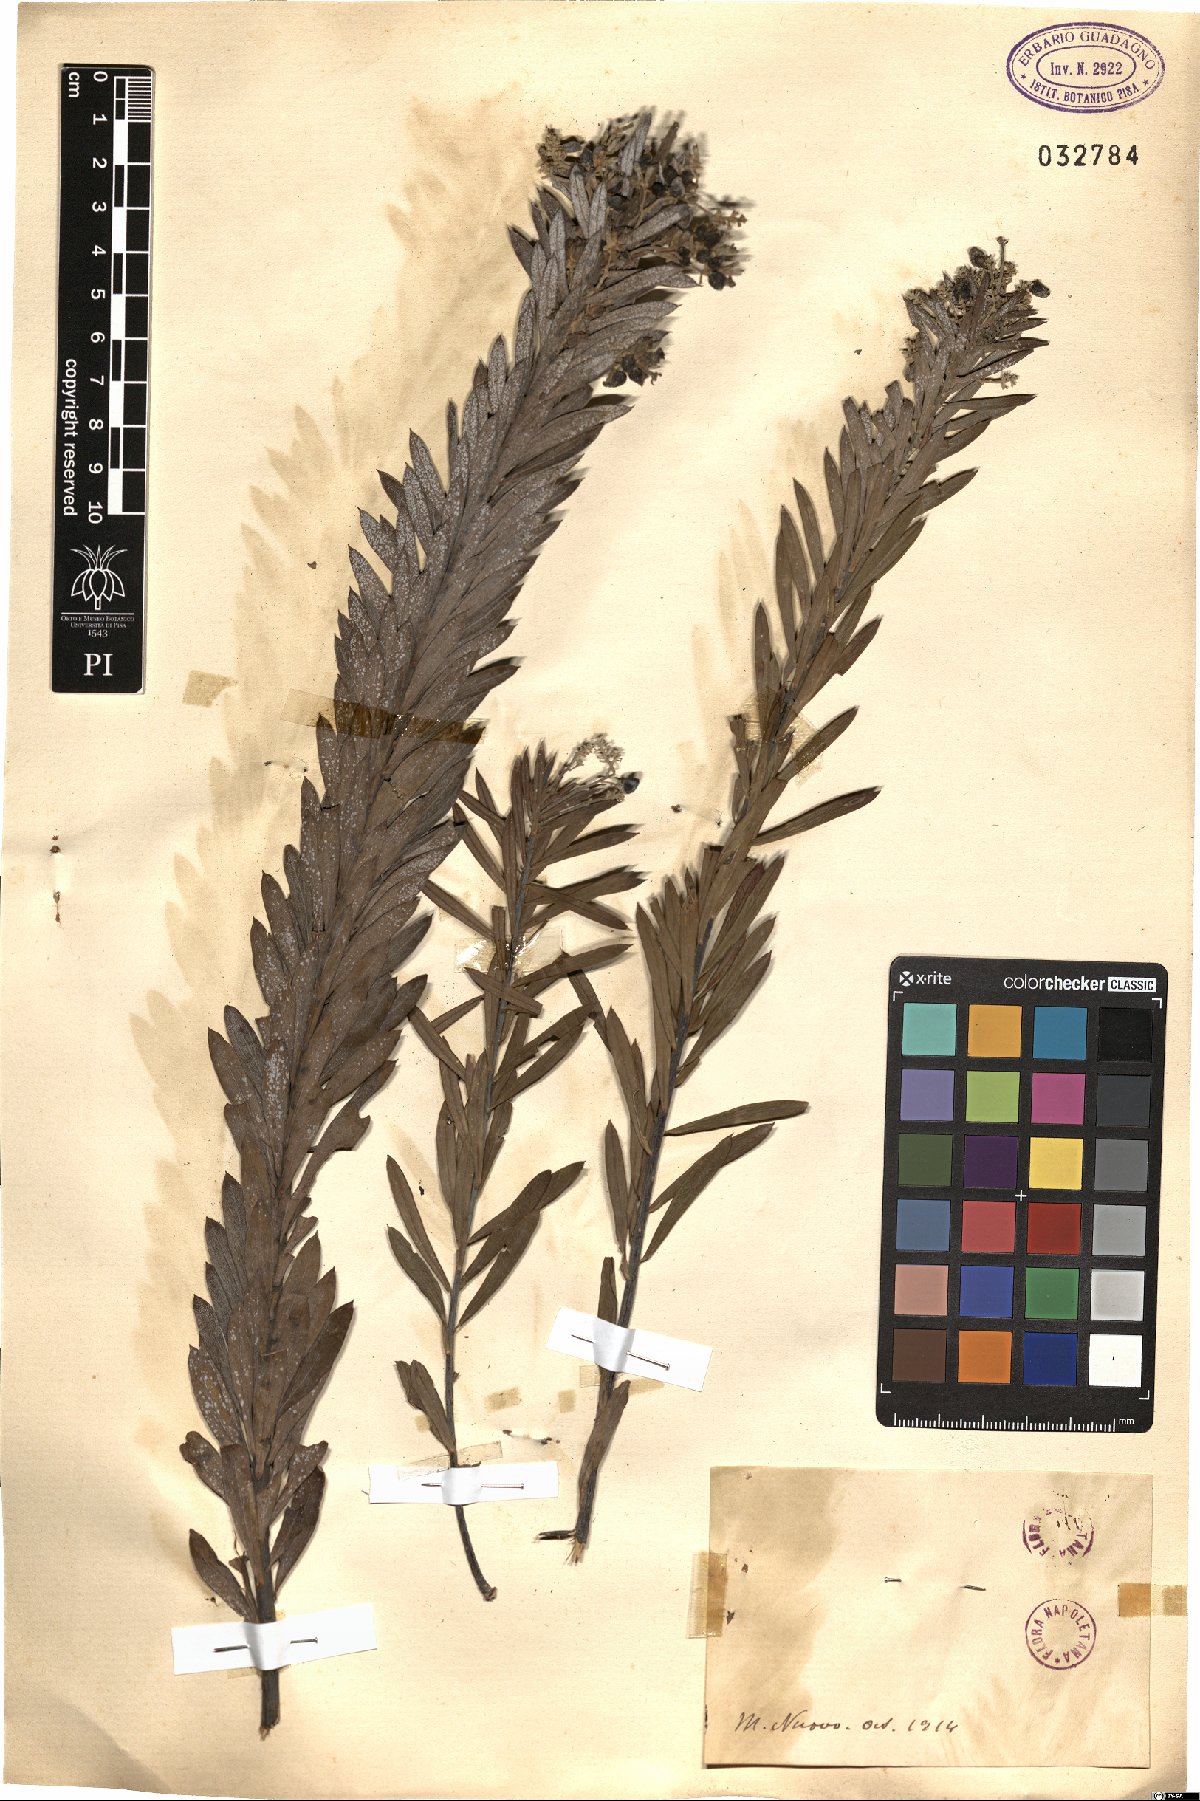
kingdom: Plantae
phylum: Tracheophyta
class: Magnoliopsida
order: Malvales
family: Thymelaeaceae
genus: Daphne
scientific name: Daphne
